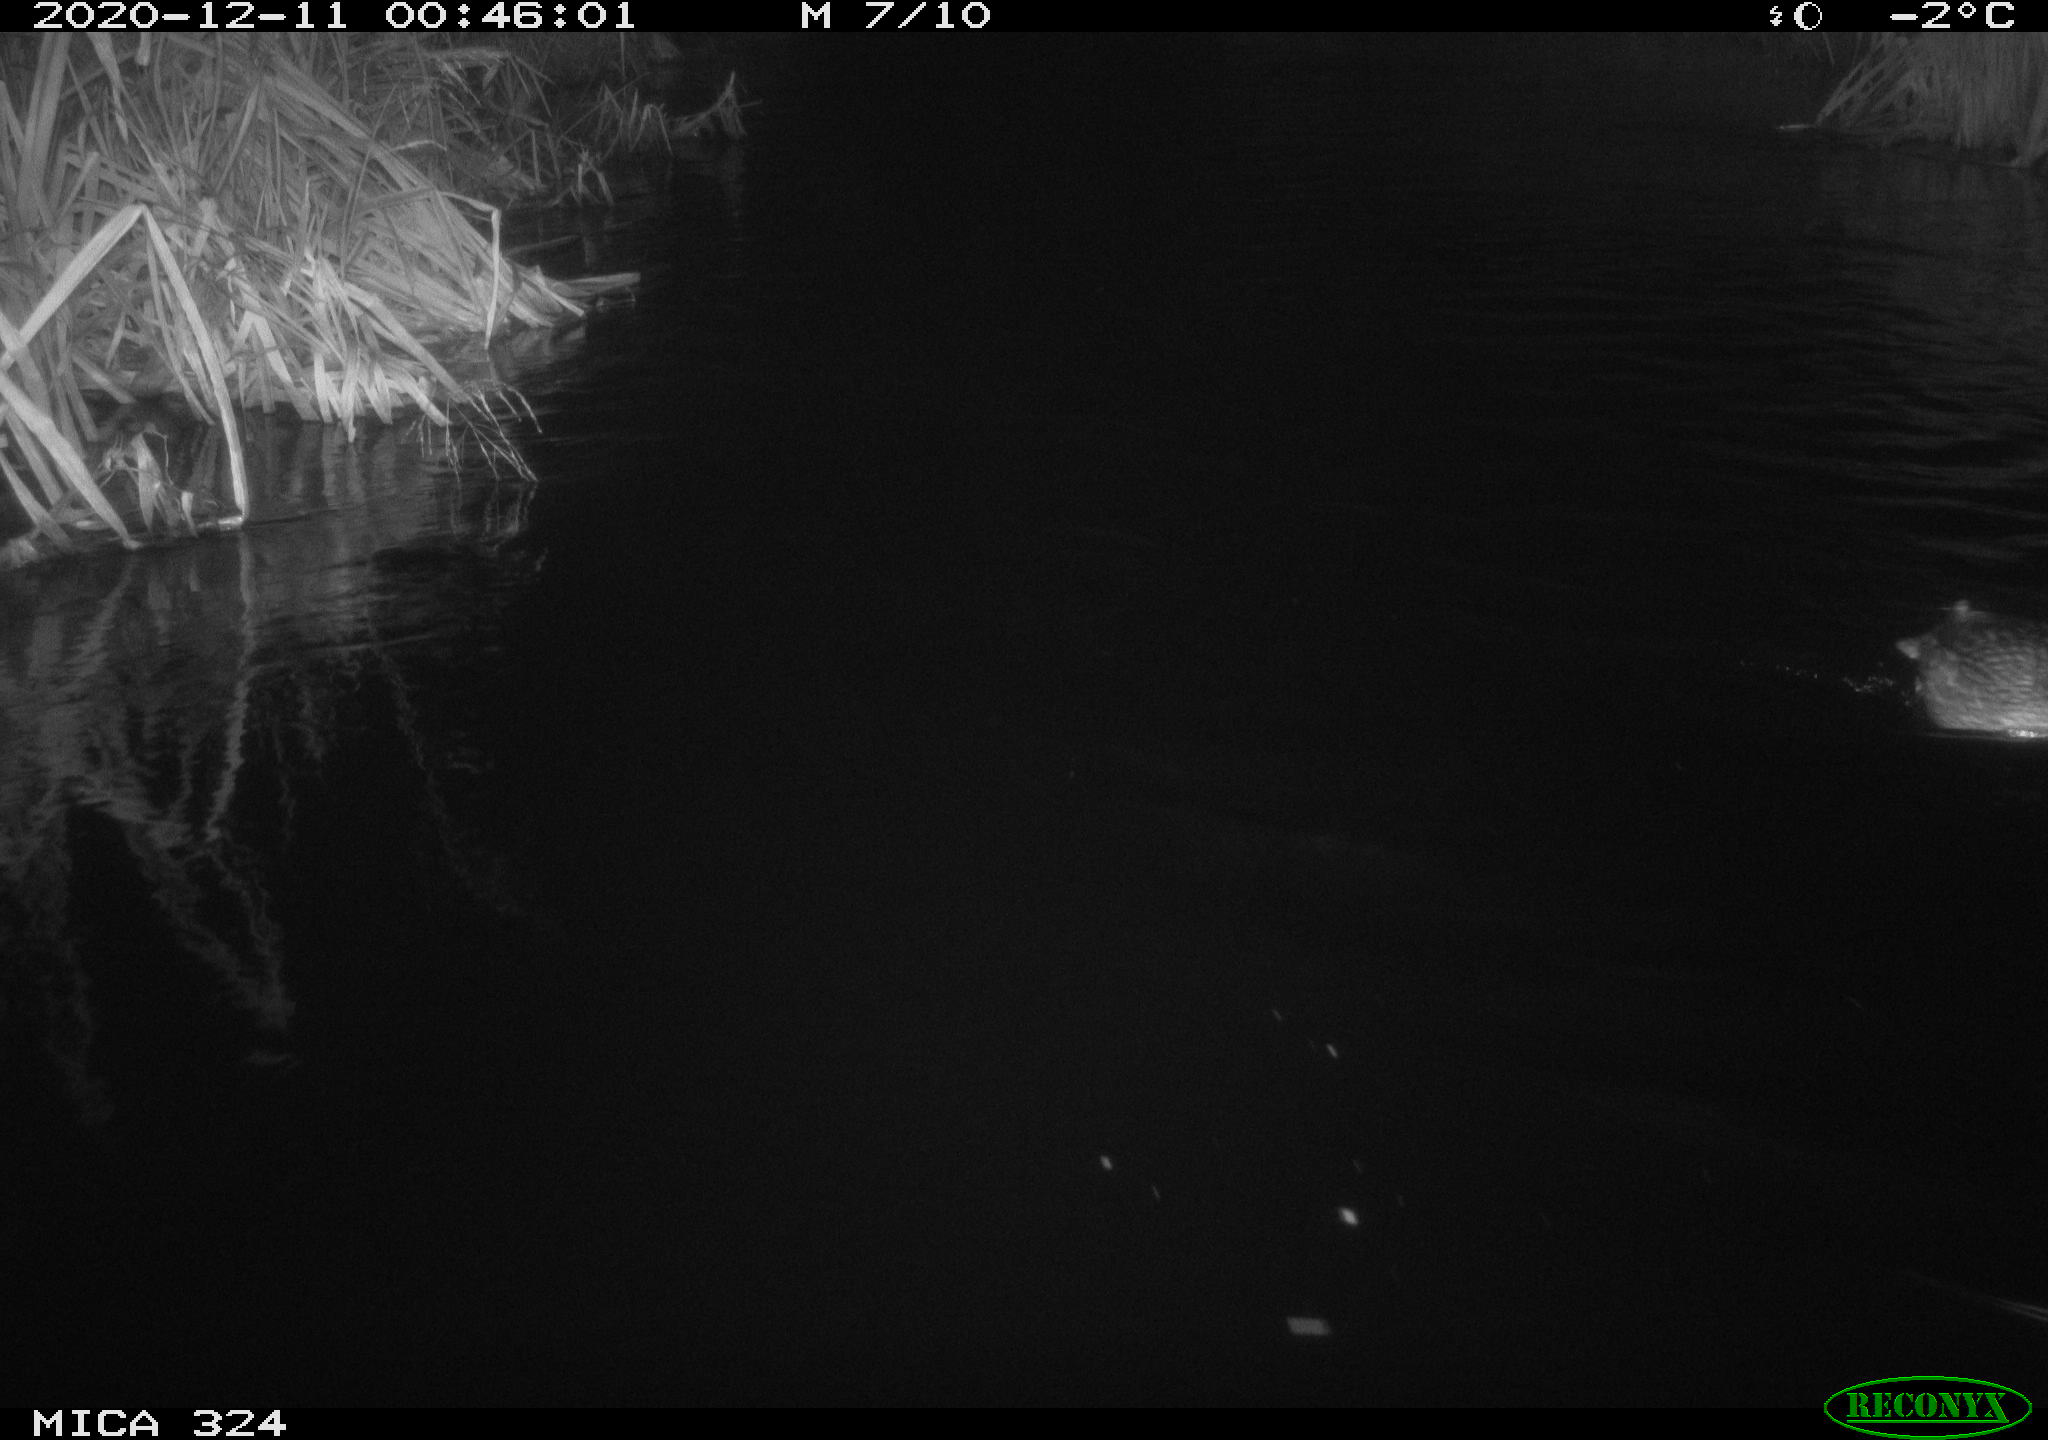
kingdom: Animalia
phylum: Chordata
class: Aves
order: Anseriformes
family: Anatidae
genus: Anas
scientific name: Anas platyrhynchos
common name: Mallard
